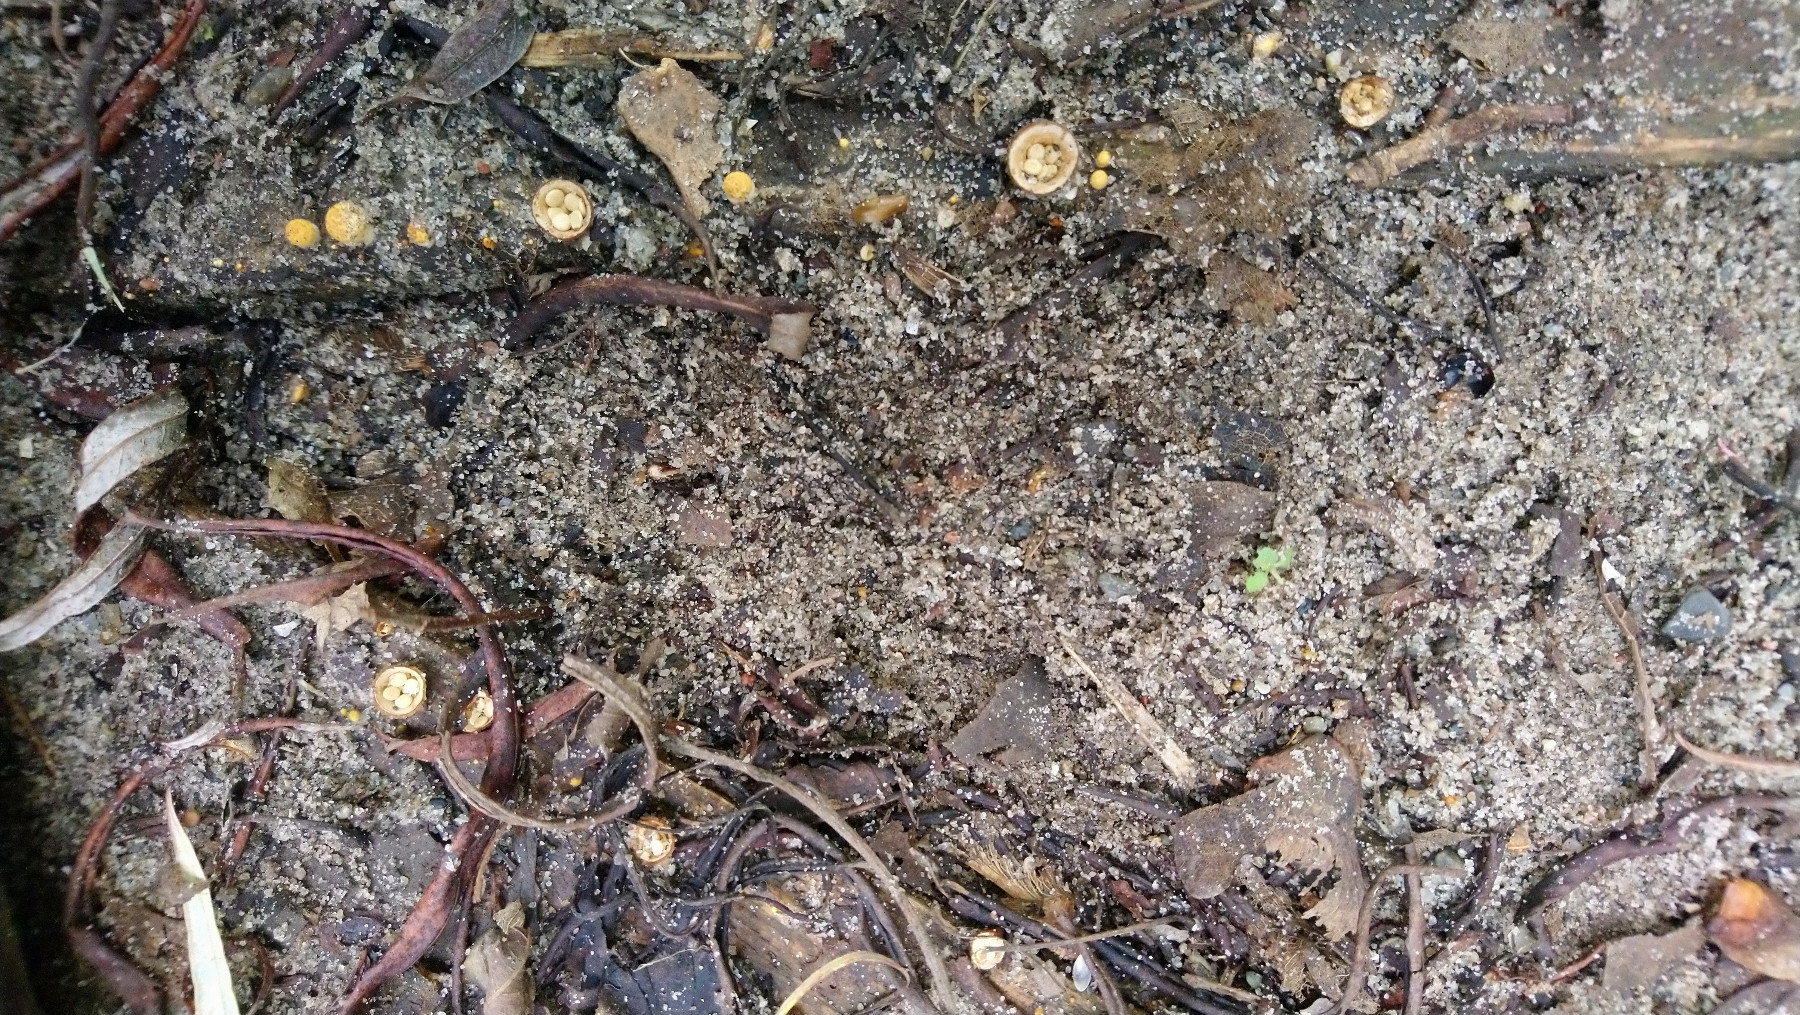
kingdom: Fungi
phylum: Basidiomycota
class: Agaricomycetes
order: Agaricales
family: Nidulariaceae
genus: Crucibulum
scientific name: Crucibulum crucibuliforme
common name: krukkesvamp
